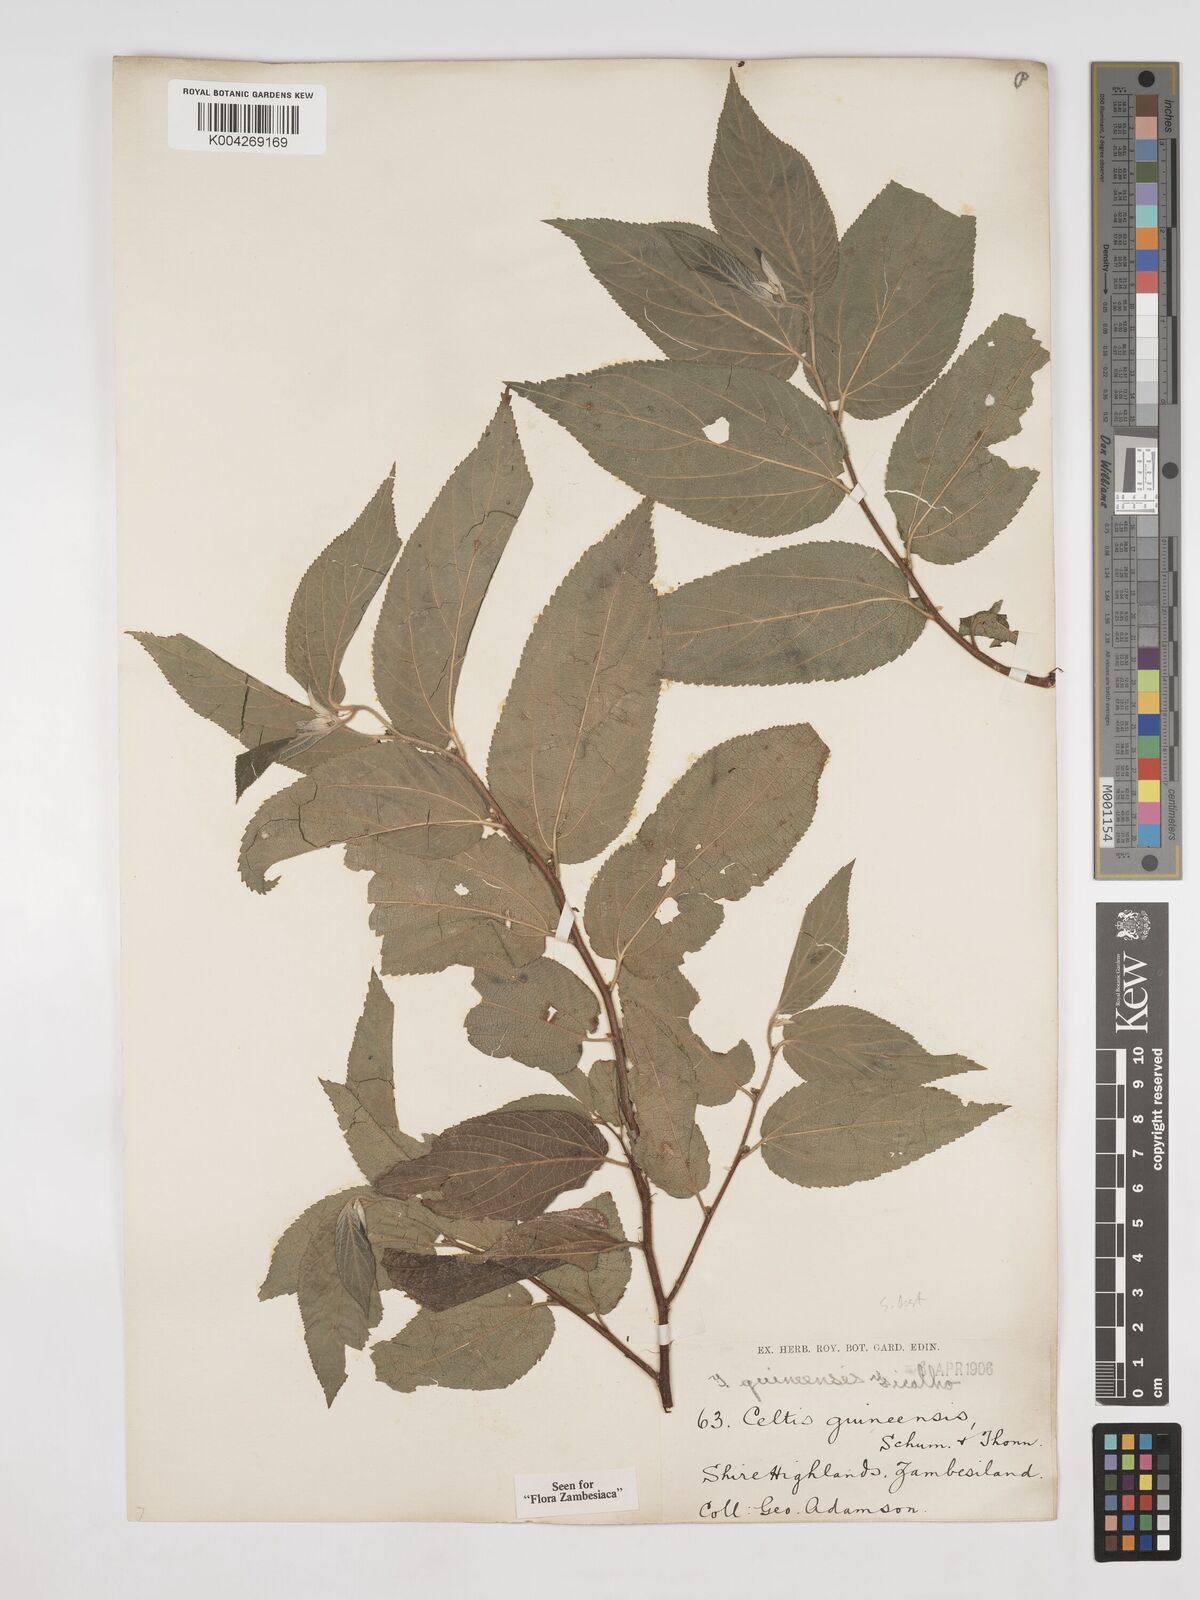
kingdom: Plantae
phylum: Tracheophyta
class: Magnoliopsida
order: Rosales
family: Cannabaceae
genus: Trema
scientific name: Trema orientale
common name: Indian charcoal tree
